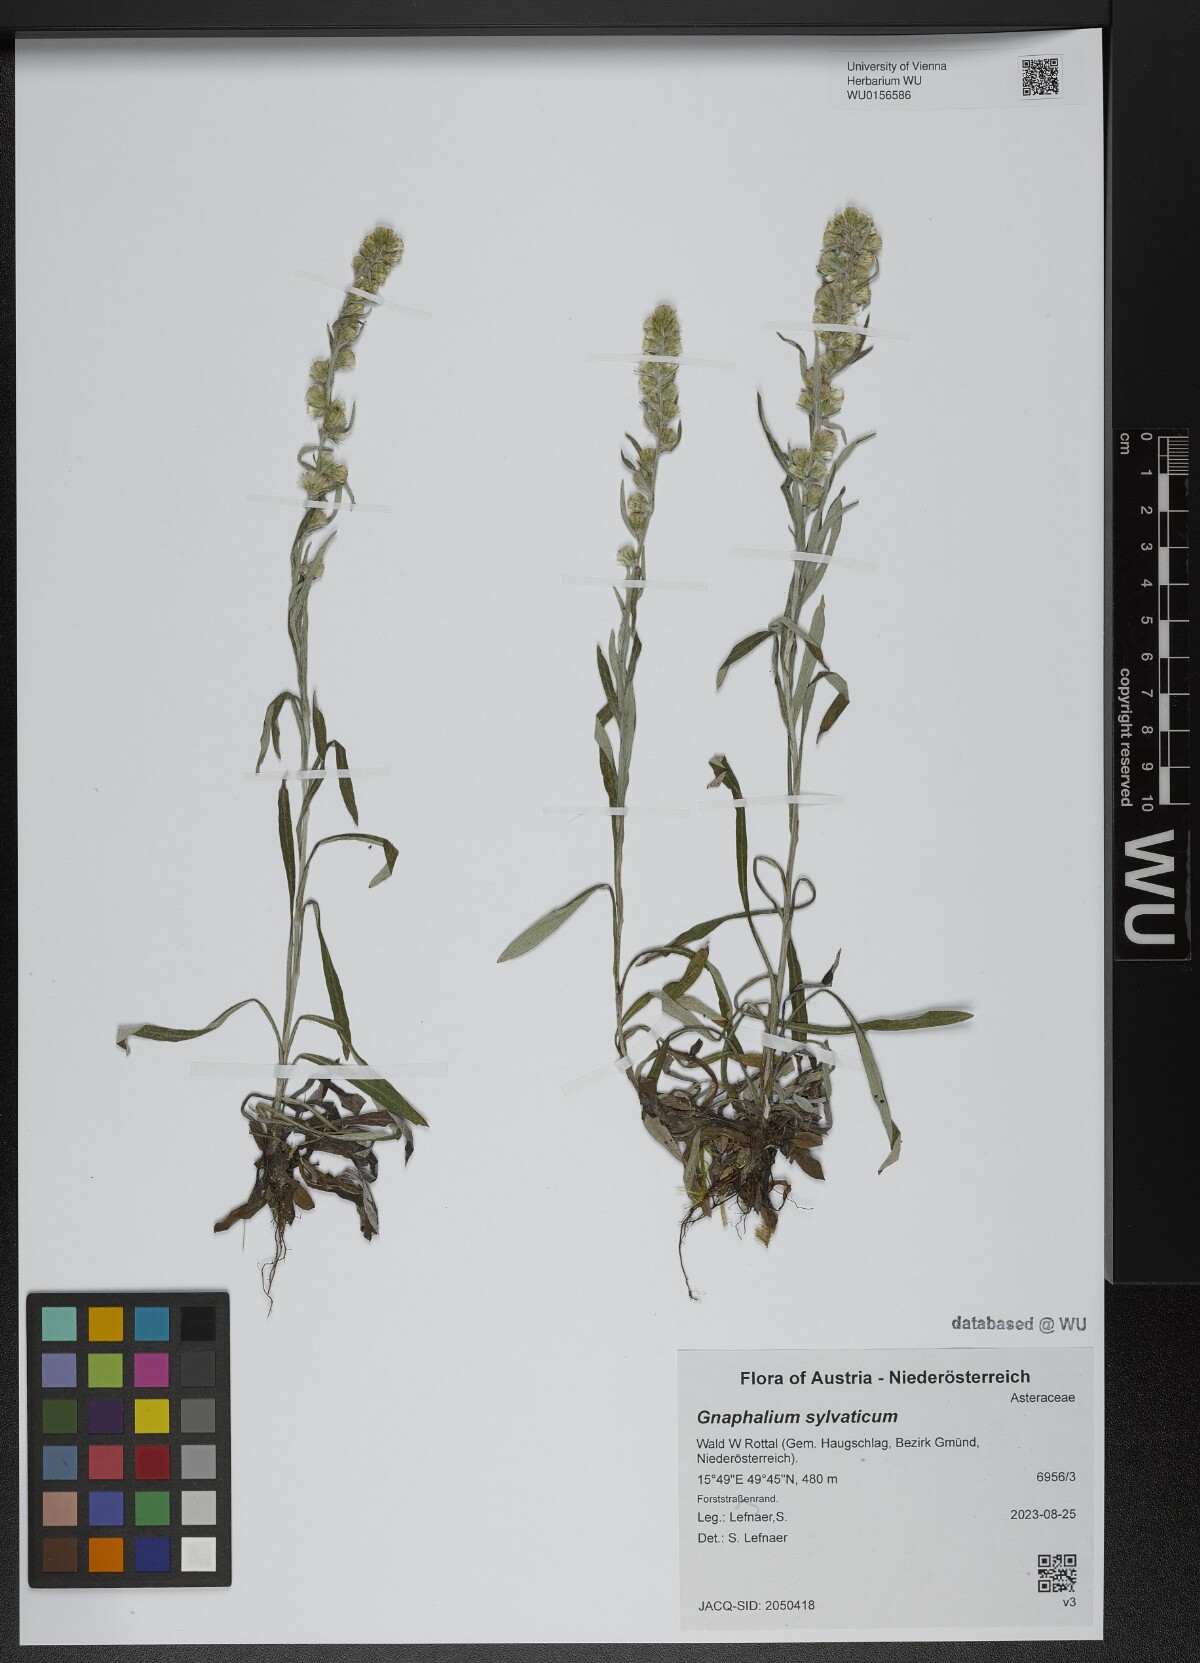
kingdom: Plantae
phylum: Tracheophyta
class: Magnoliopsida
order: Asterales
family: Asteraceae
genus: Omalotheca
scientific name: Omalotheca sylvatica
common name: Heath cudweed
